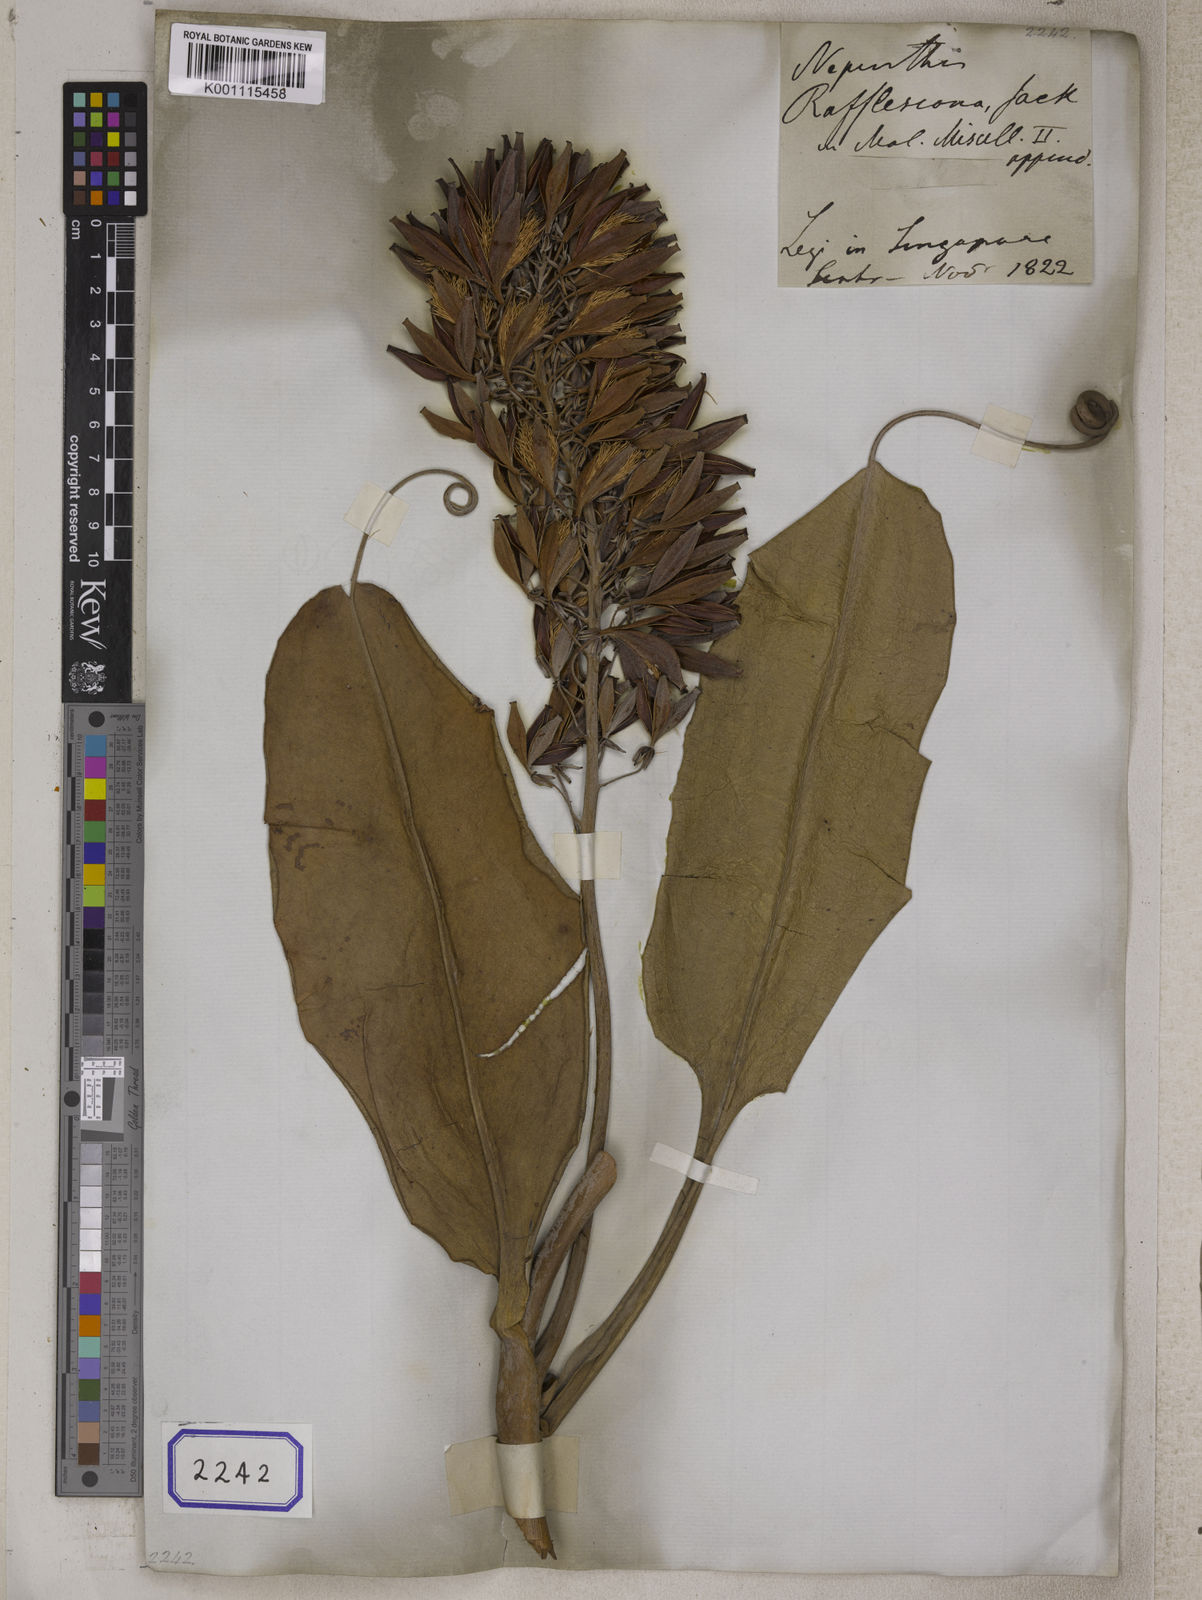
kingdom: Plantae
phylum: Tracheophyta
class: Magnoliopsida
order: Caryophyllales
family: Nepenthaceae
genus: Nepenthes
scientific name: Nepenthes rafflesiana
